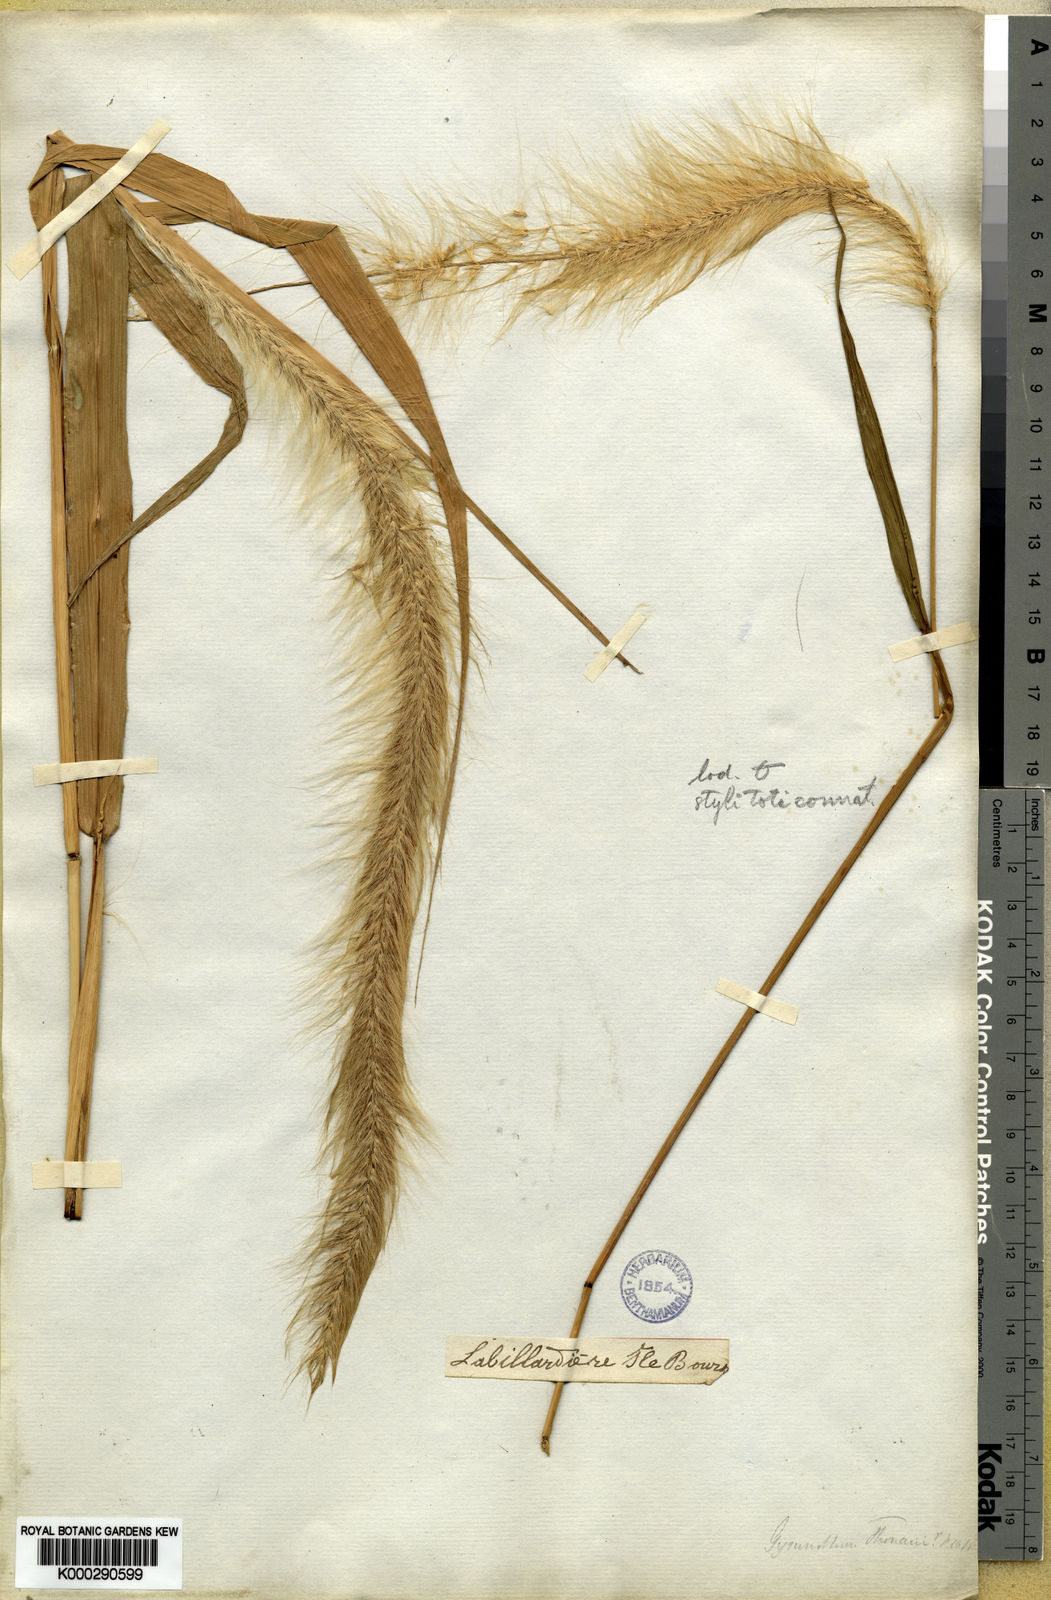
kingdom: Plantae
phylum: Tracheophyta
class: Liliopsida
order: Poales
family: Poaceae
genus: Cenchrus
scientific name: Cenchrus Pennisetum macrostachyum
